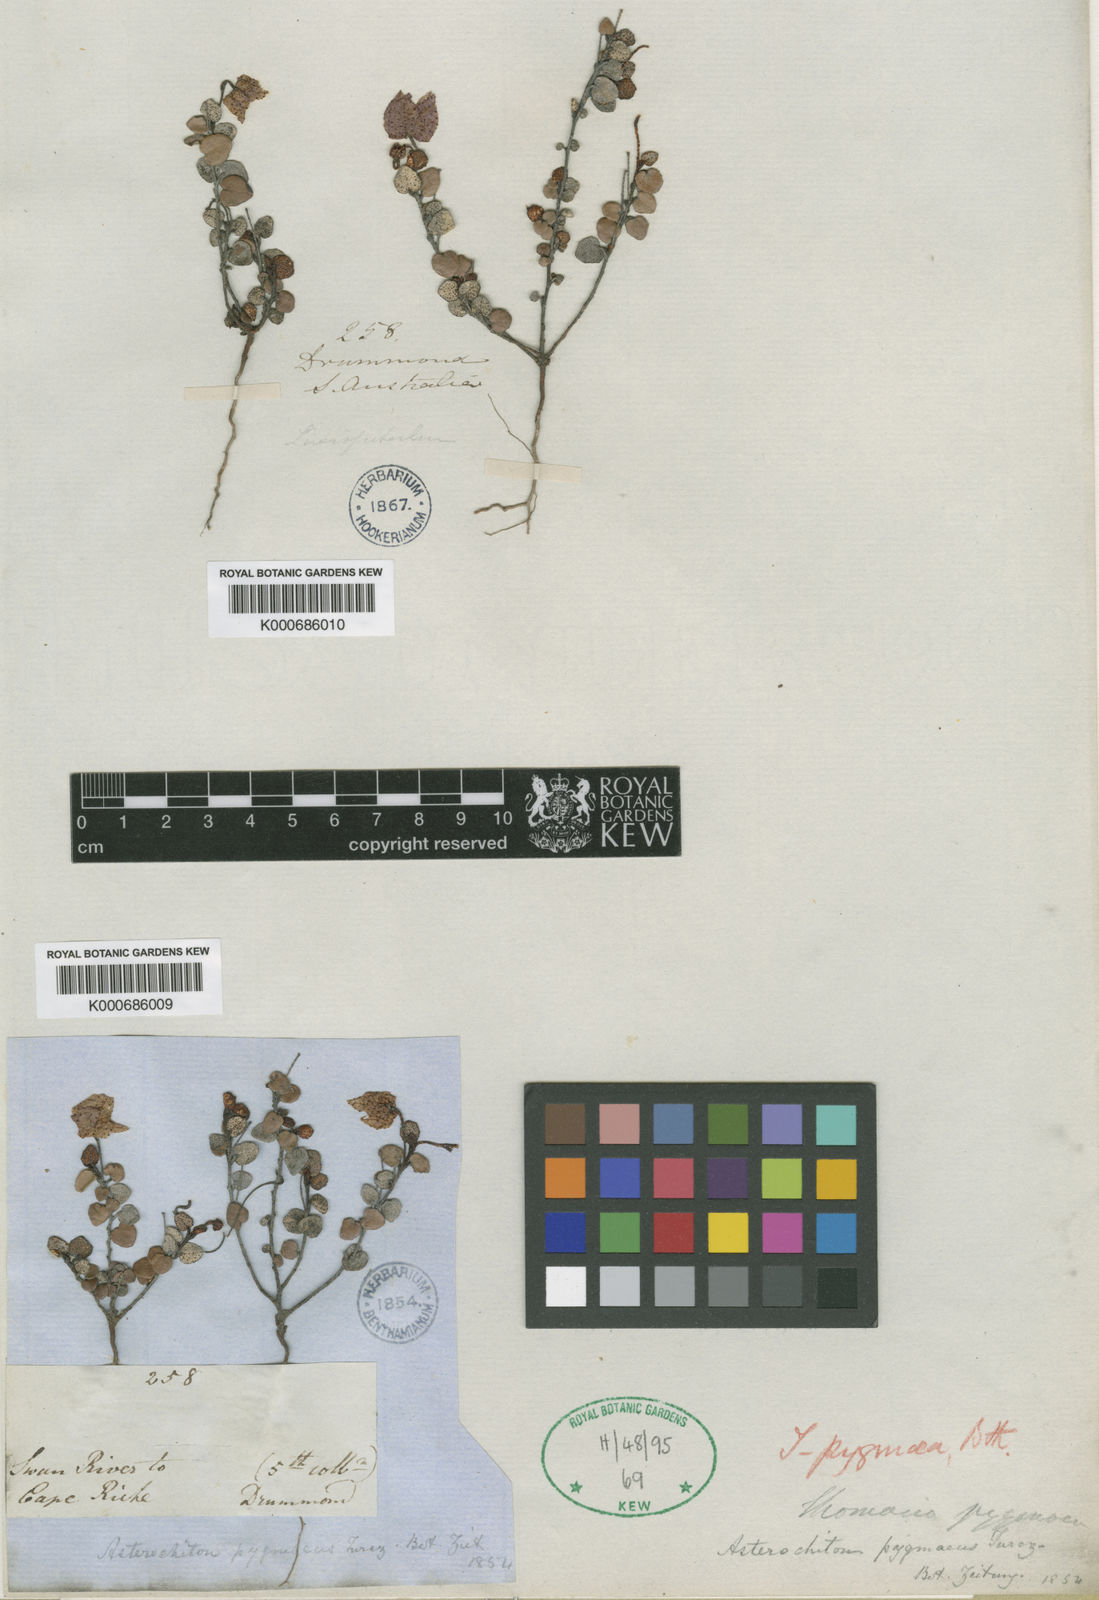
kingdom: Plantae
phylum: Tracheophyta
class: Magnoliopsida
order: Malvales
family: Malvaceae
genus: Thomasia
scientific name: Thomasia pygmaea
